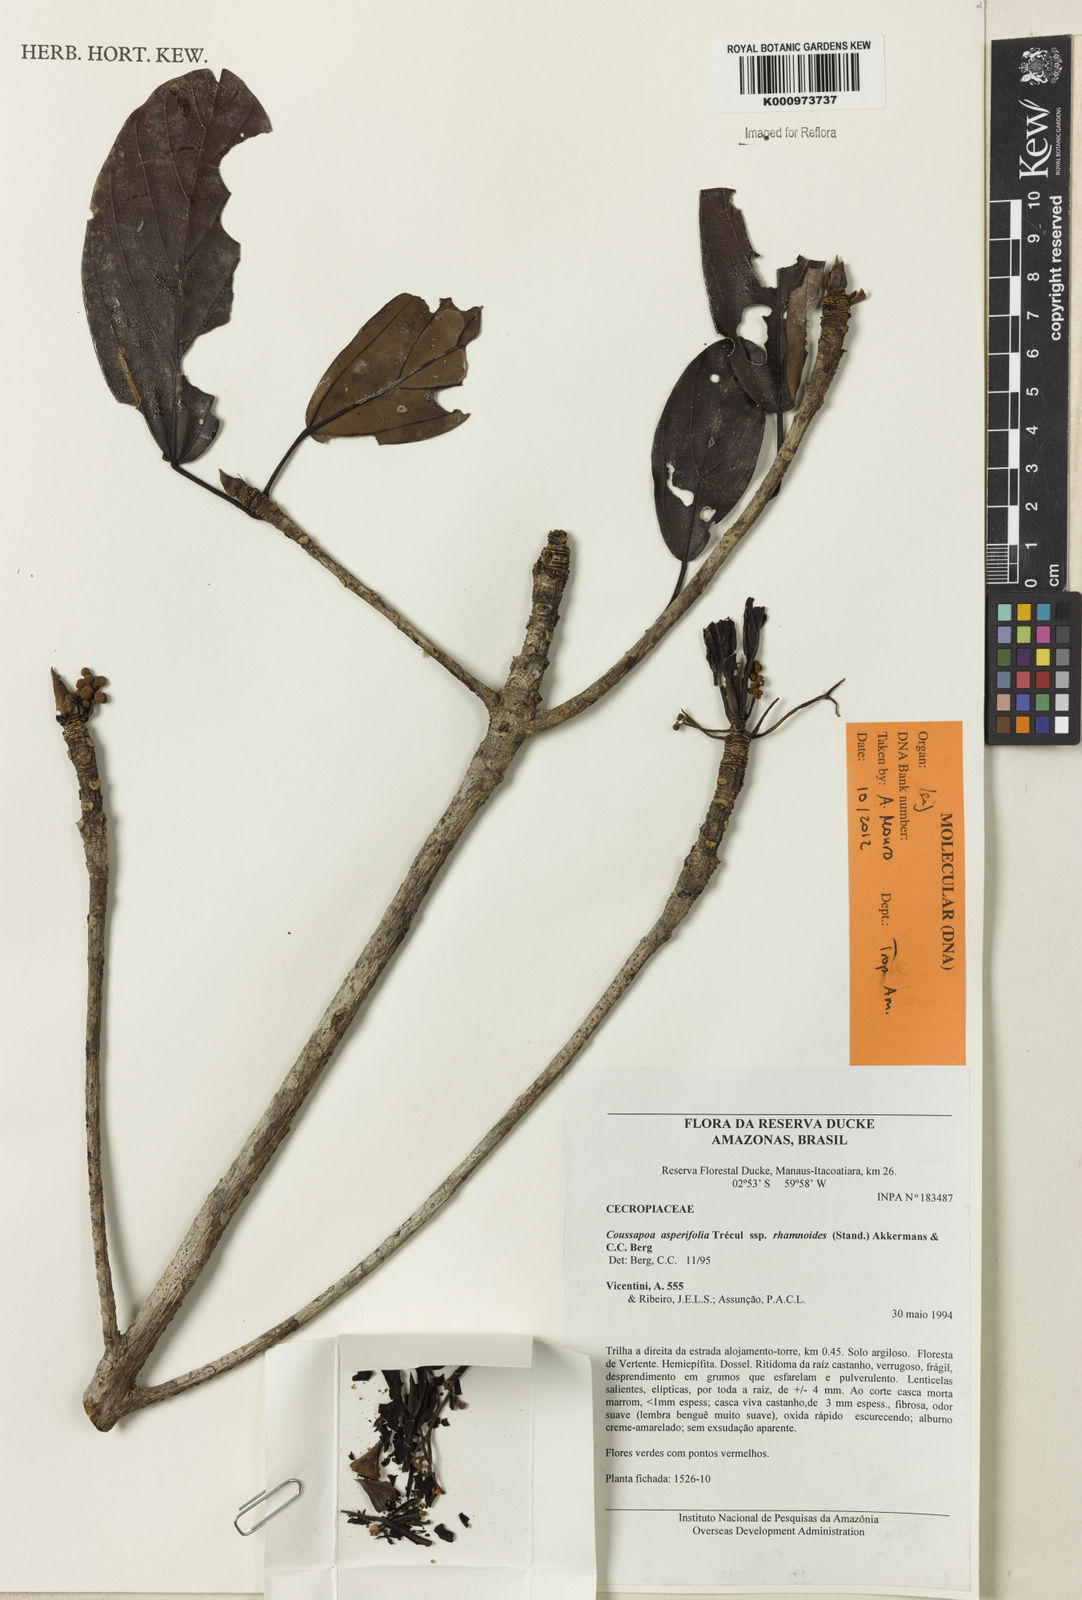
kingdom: Plantae
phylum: Tracheophyta
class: Magnoliopsida
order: Rosales
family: Urticaceae
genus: Coussapoa
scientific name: Coussapoa
